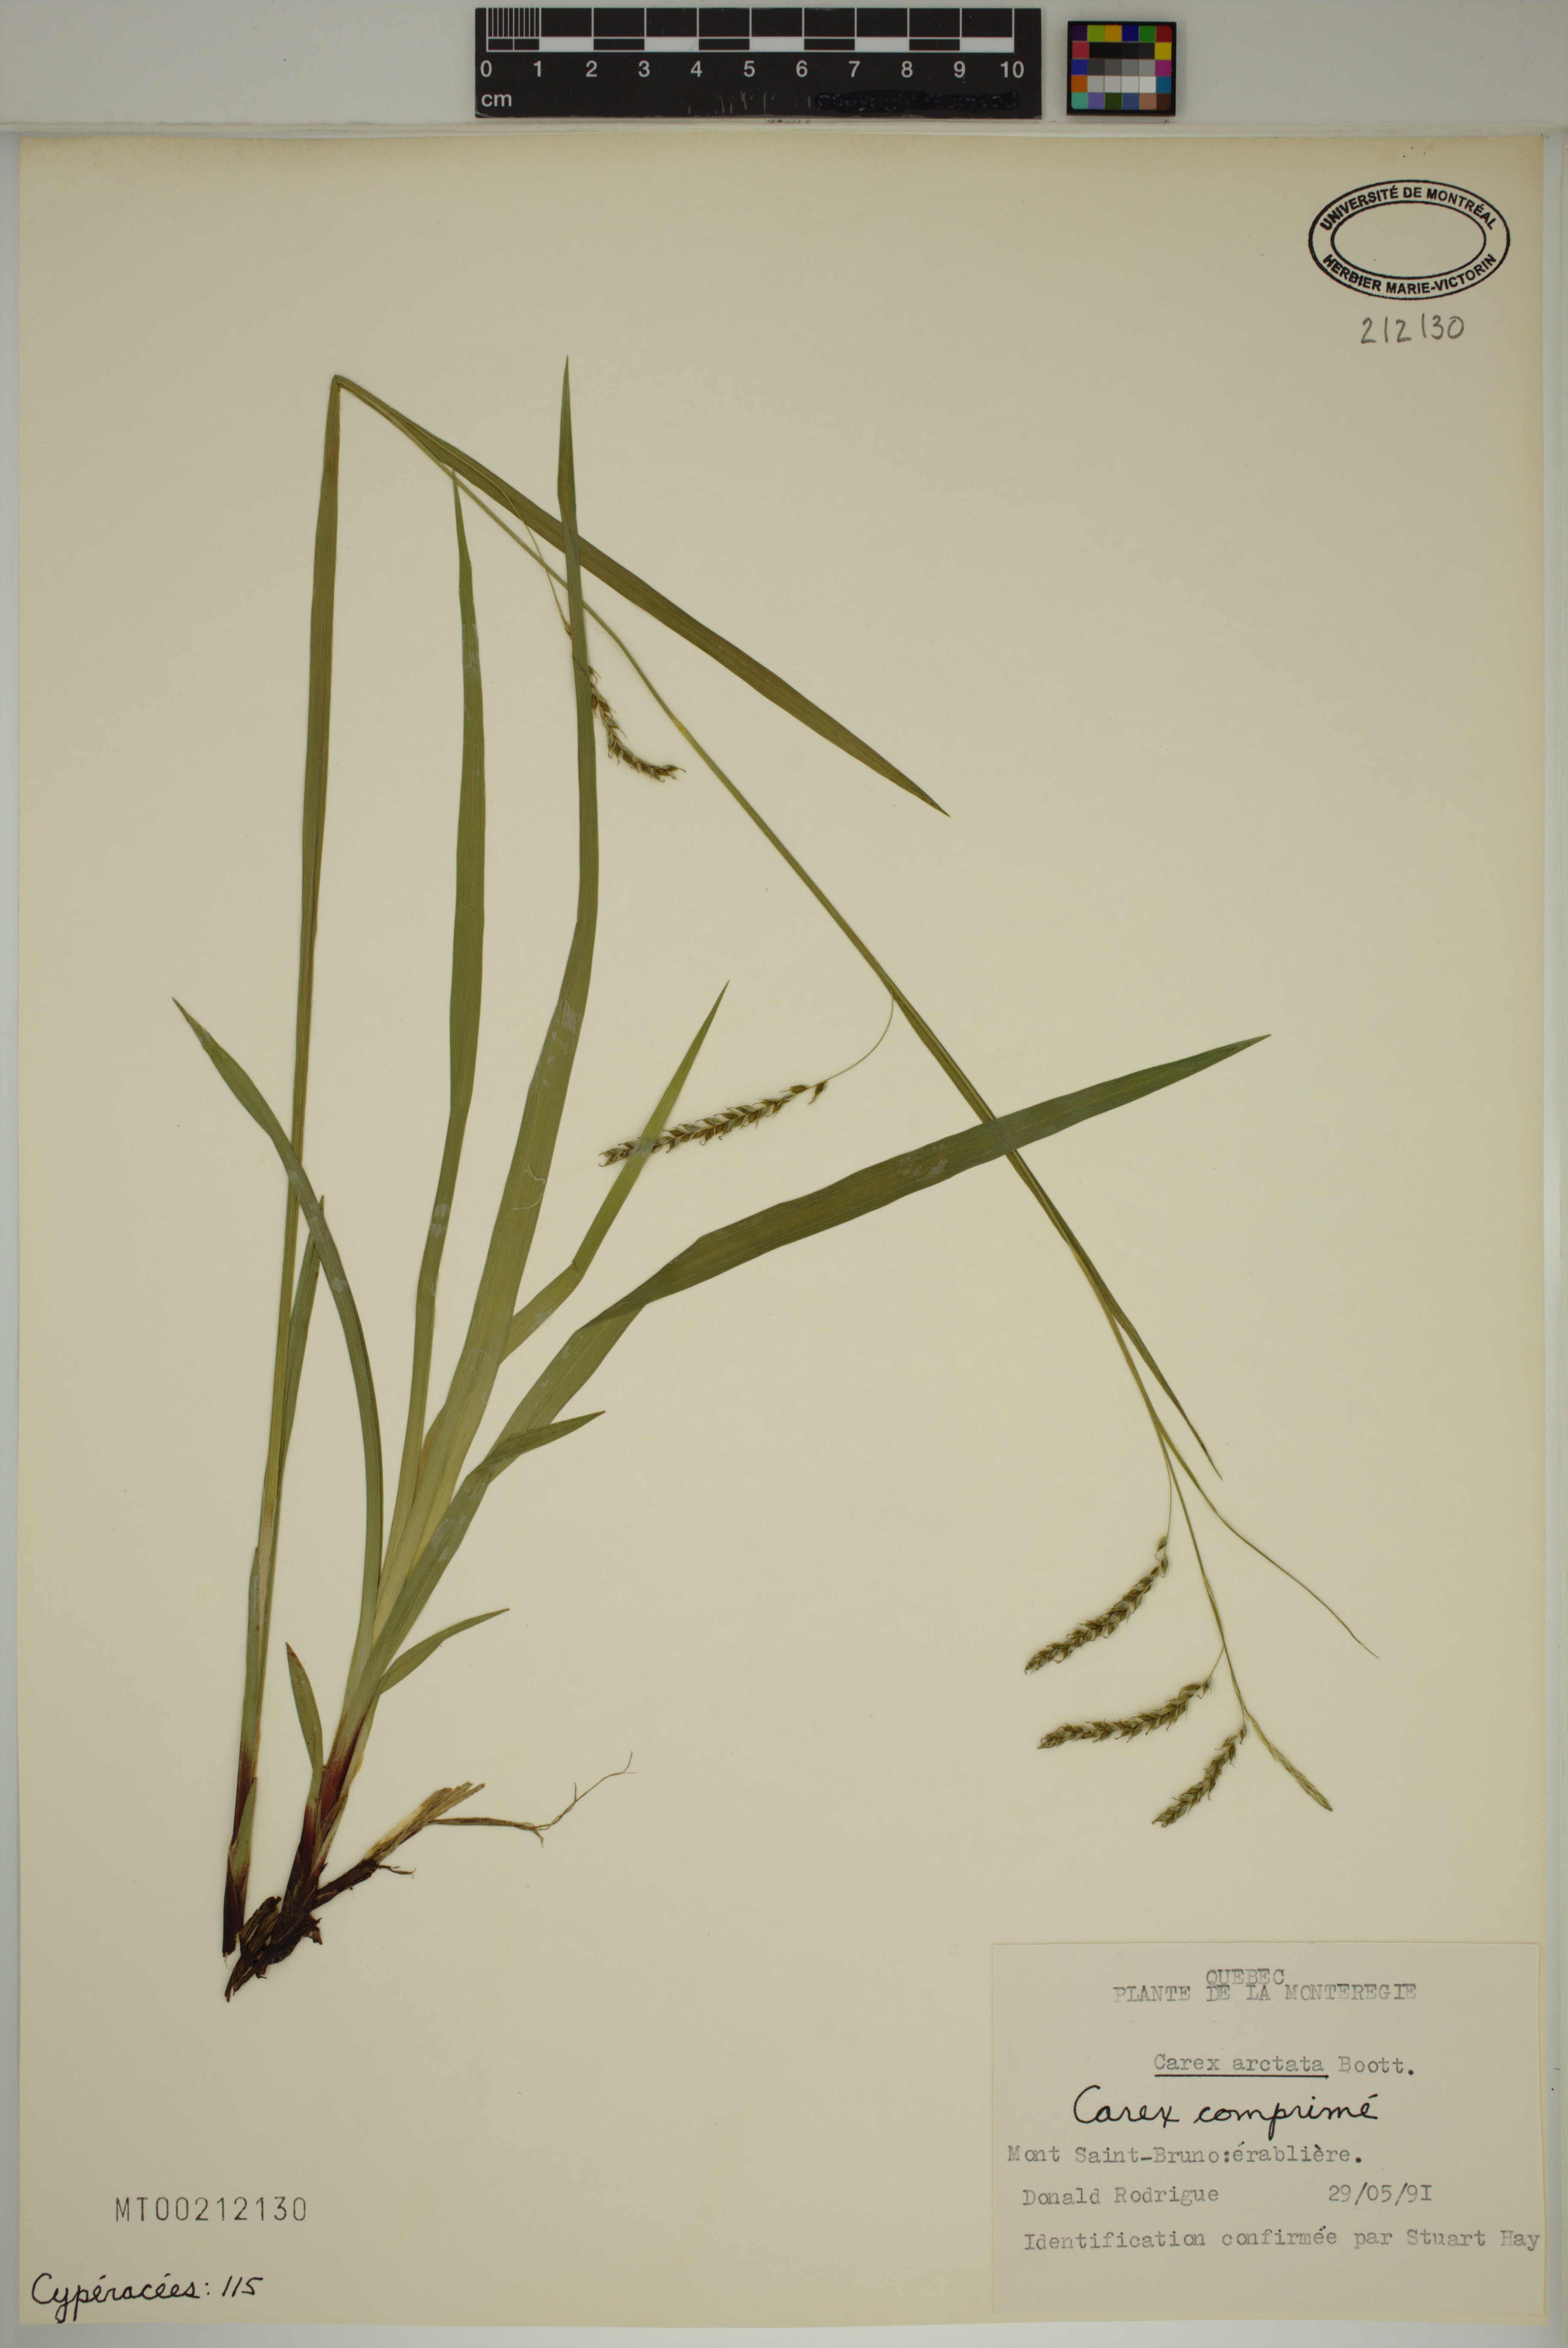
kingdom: Plantae
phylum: Tracheophyta
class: Liliopsida
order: Poales
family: Cyperaceae
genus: Carex
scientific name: Carex arctata
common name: Black sedge
